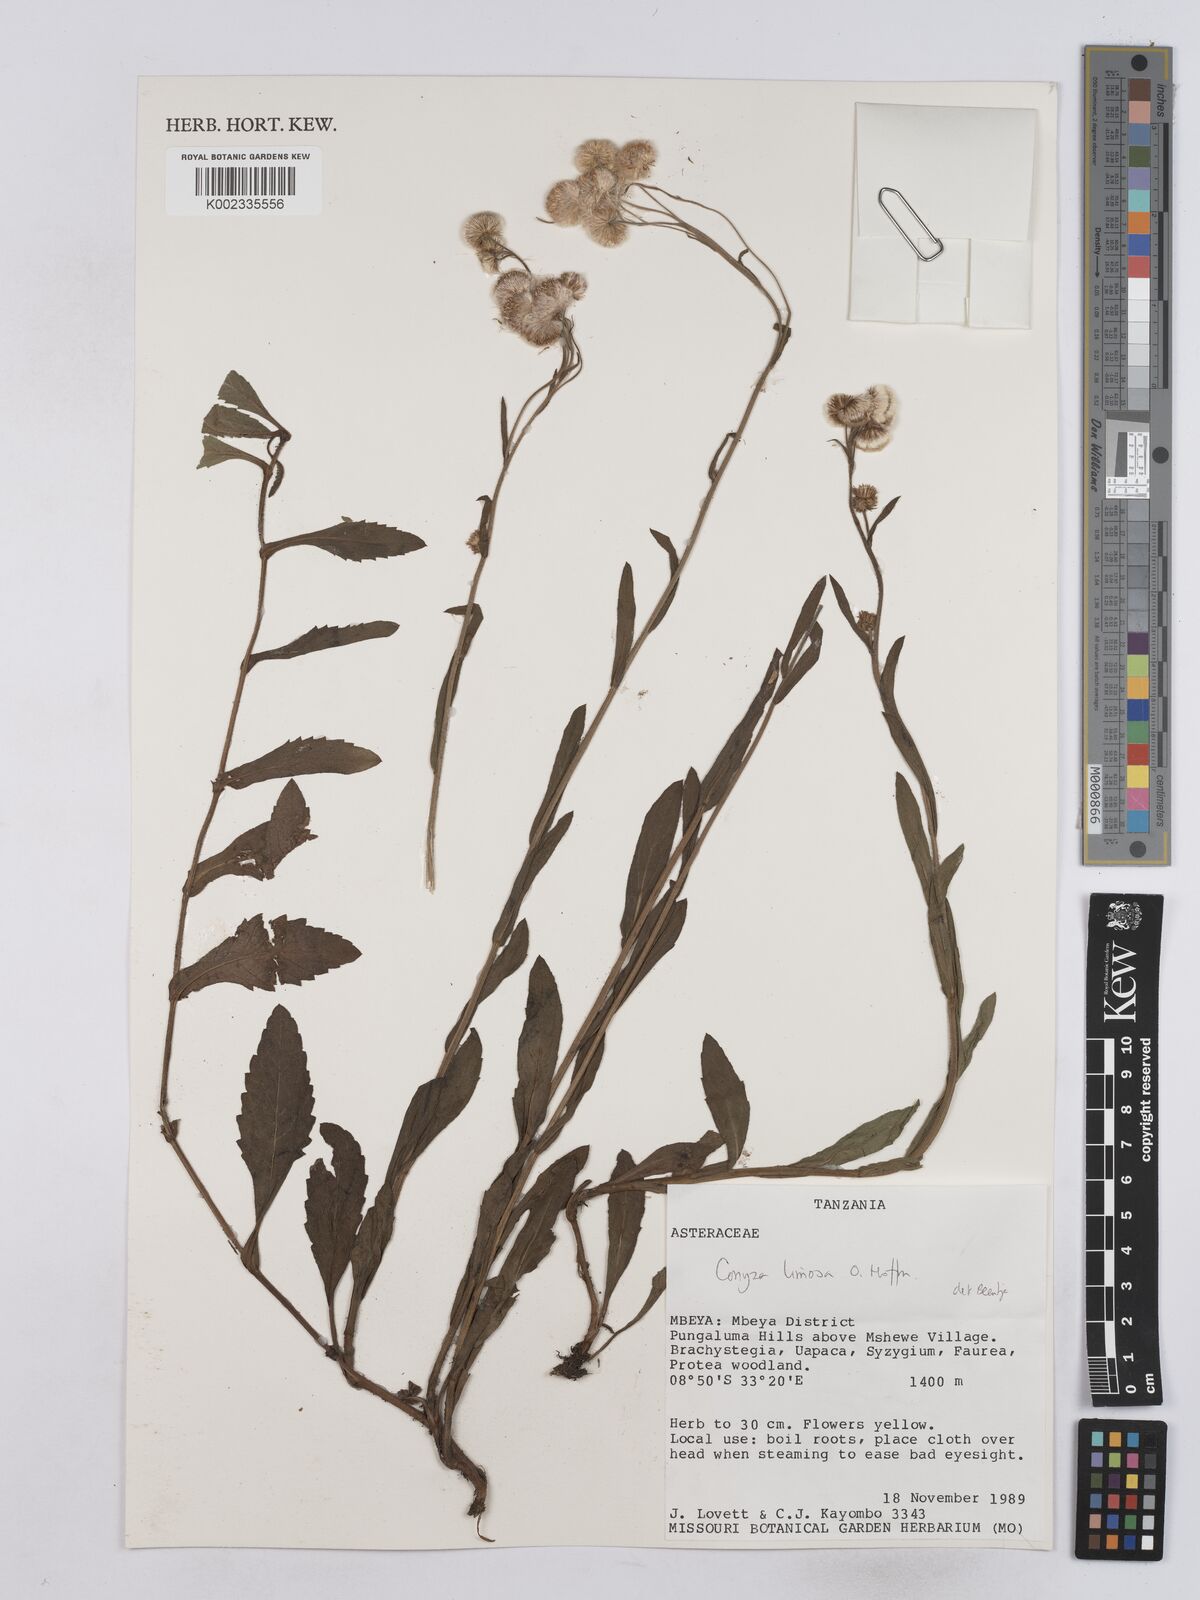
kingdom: Plantae
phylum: Tracheophyta
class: Magnoliopsida
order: Asterales
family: Asteraceae
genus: Conyza
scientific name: Conyza limosa
